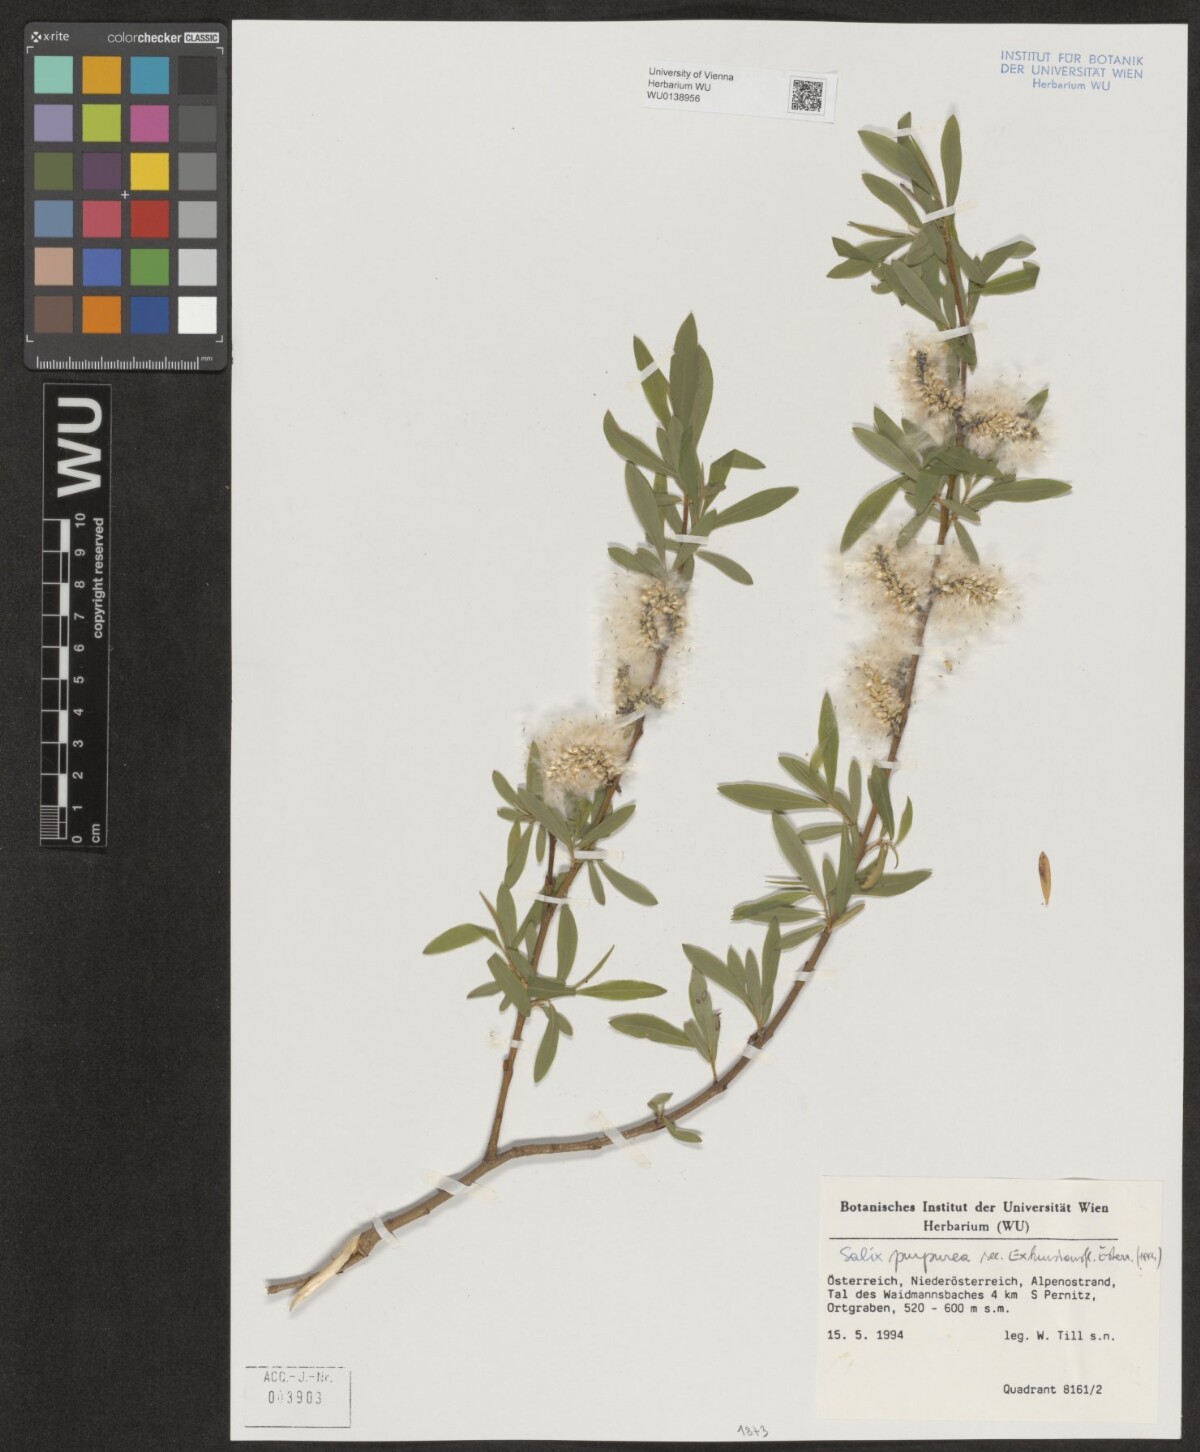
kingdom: Plantae
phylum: Tracheophyta
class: Magnoliopsida
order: Malpighiales
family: Salicaceae
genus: Salix
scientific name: Salix purpurea
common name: Purple willow
